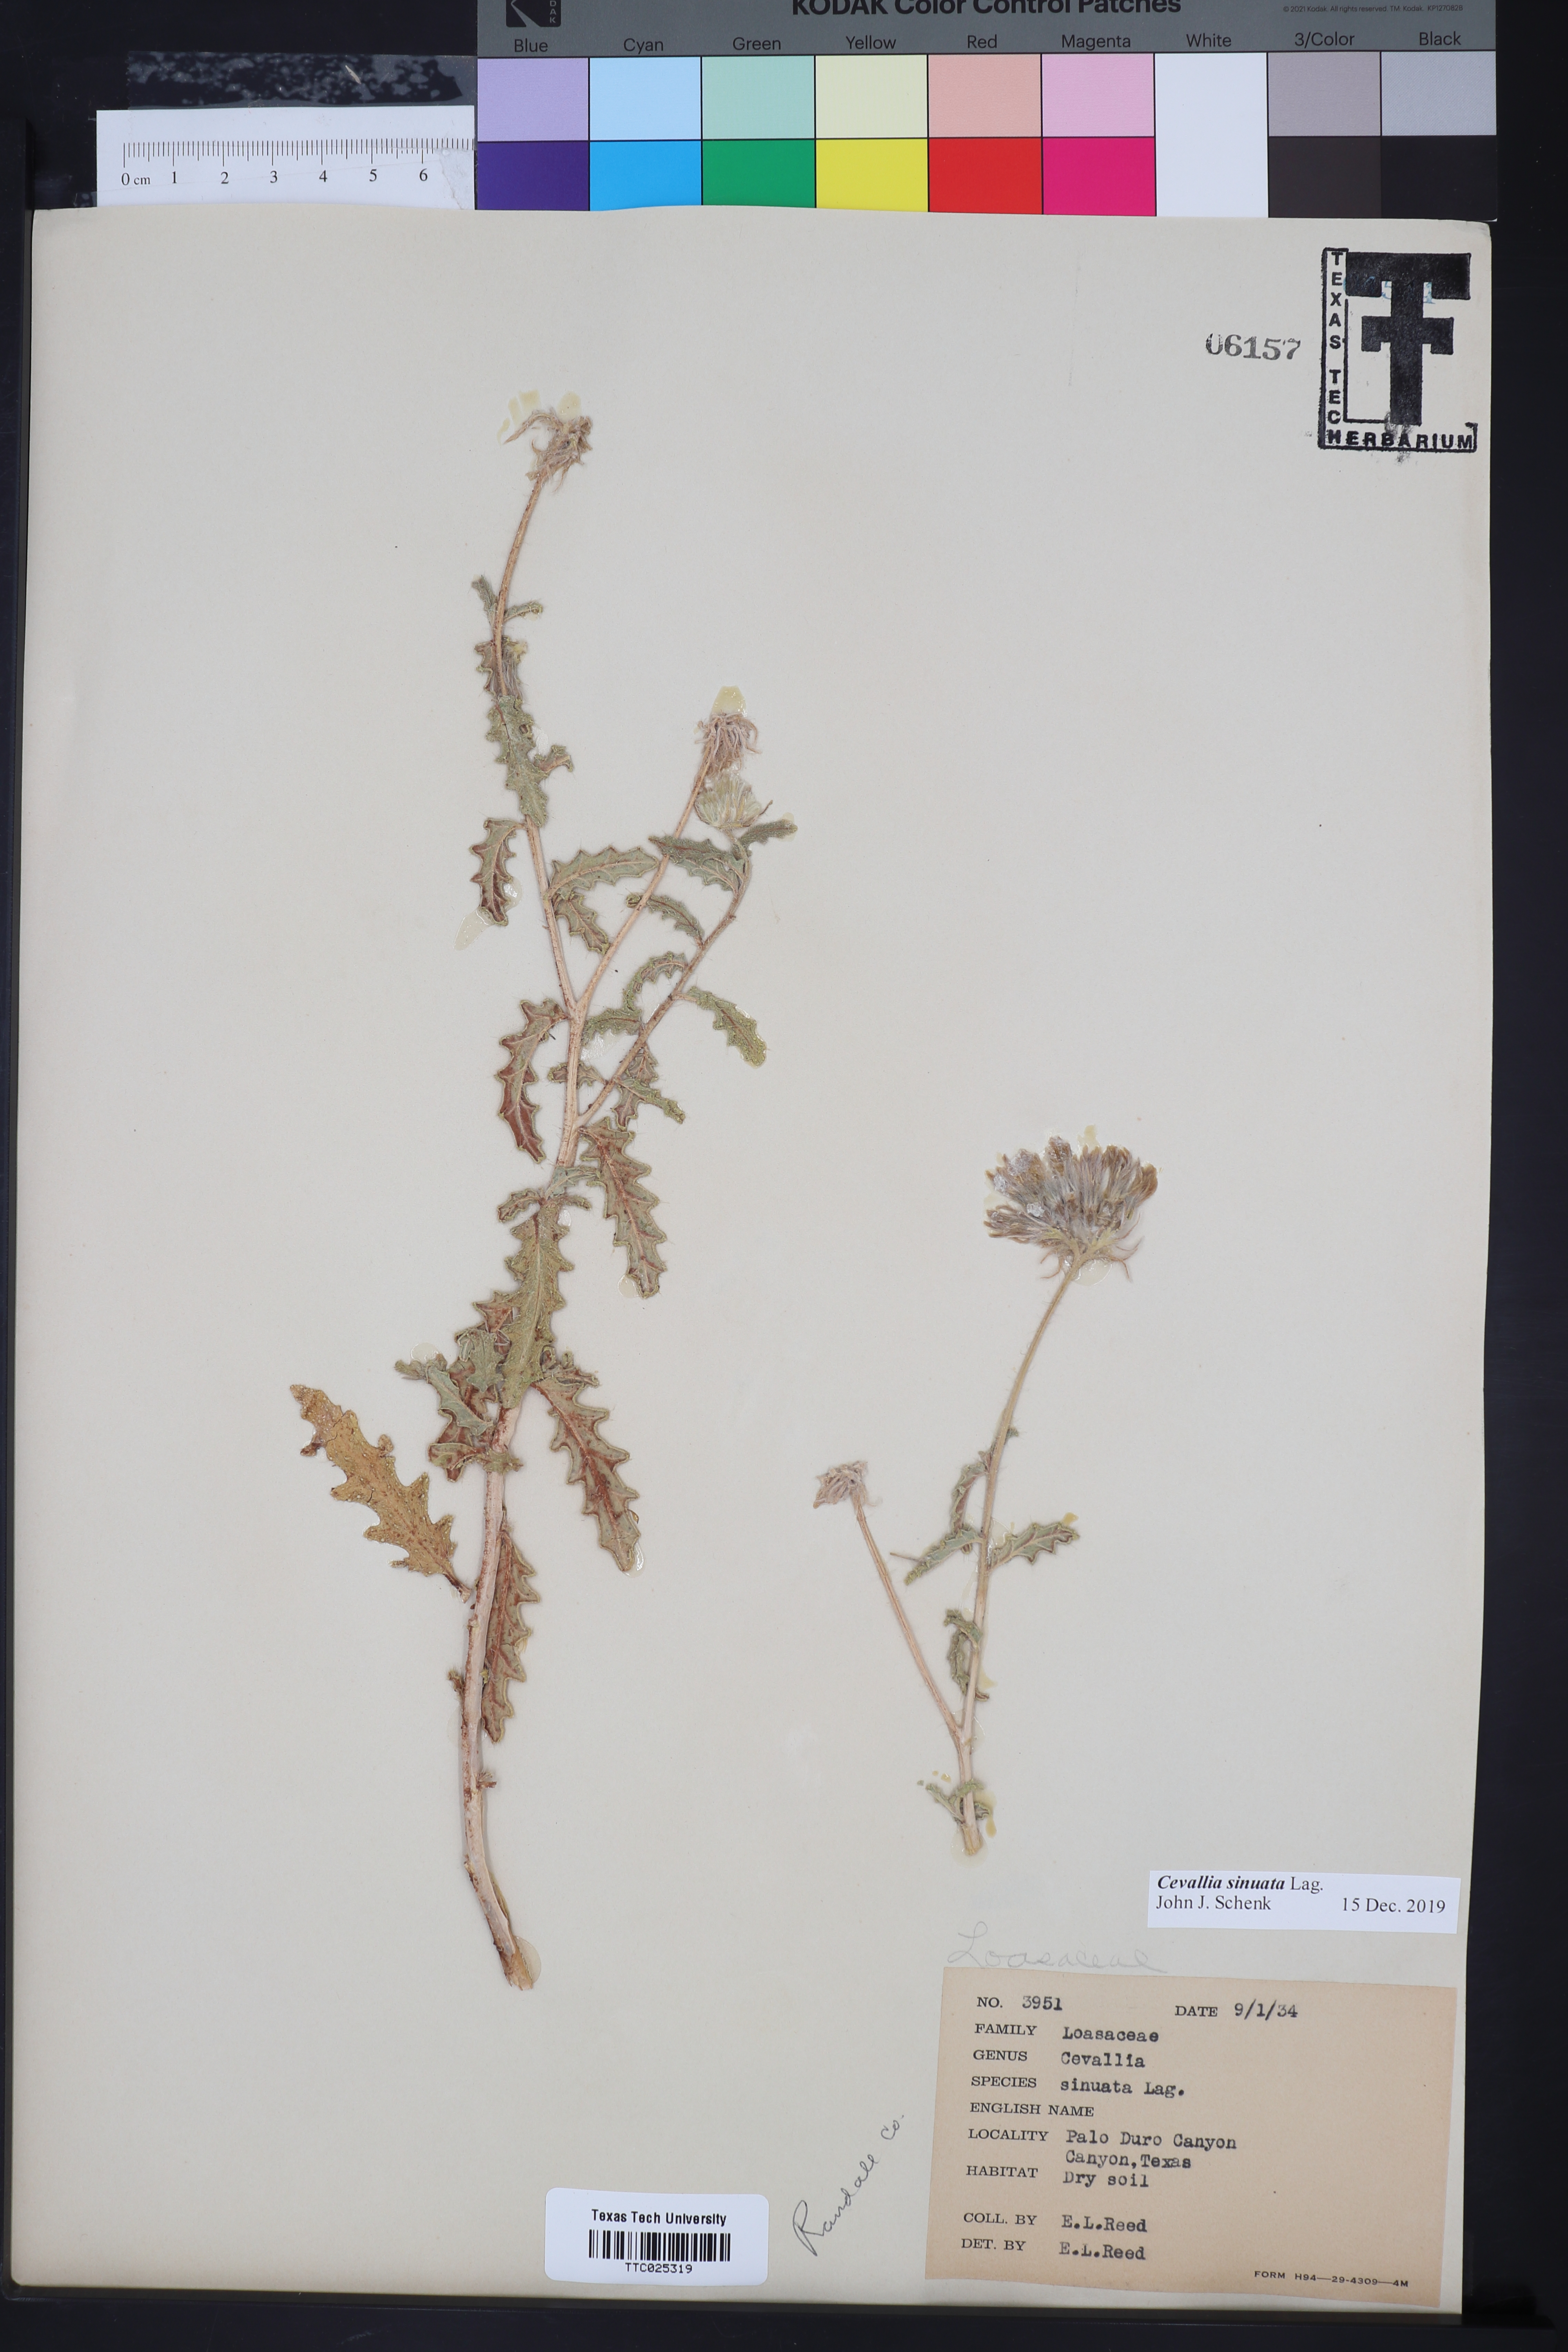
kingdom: Plantae
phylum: Tracheophyta
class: Magnoliopsida
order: Cornales
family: Loasaceae
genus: Cevallia
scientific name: Cevallia sinuata
